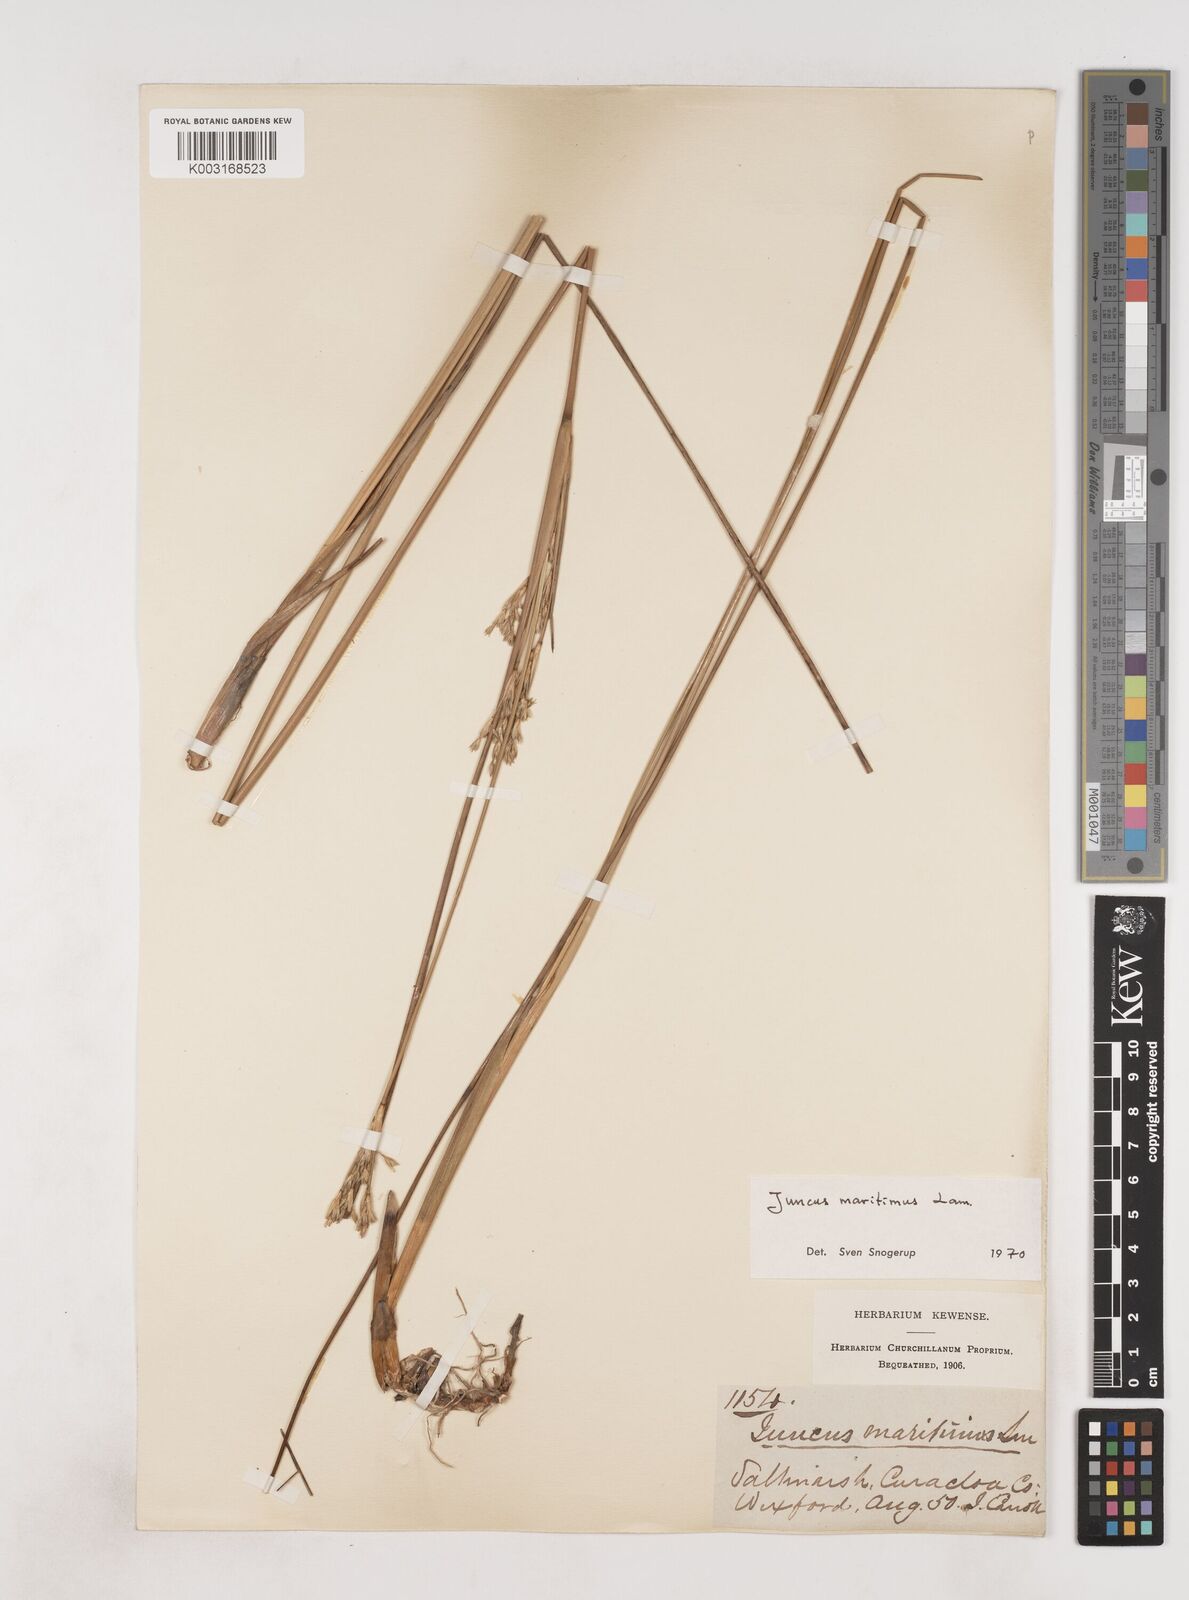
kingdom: Plantae
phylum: Tracheophyta
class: Liliopsida
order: Poales
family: Juncaceae
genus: Juncus
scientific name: Juncus maritimus
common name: Sea rush
